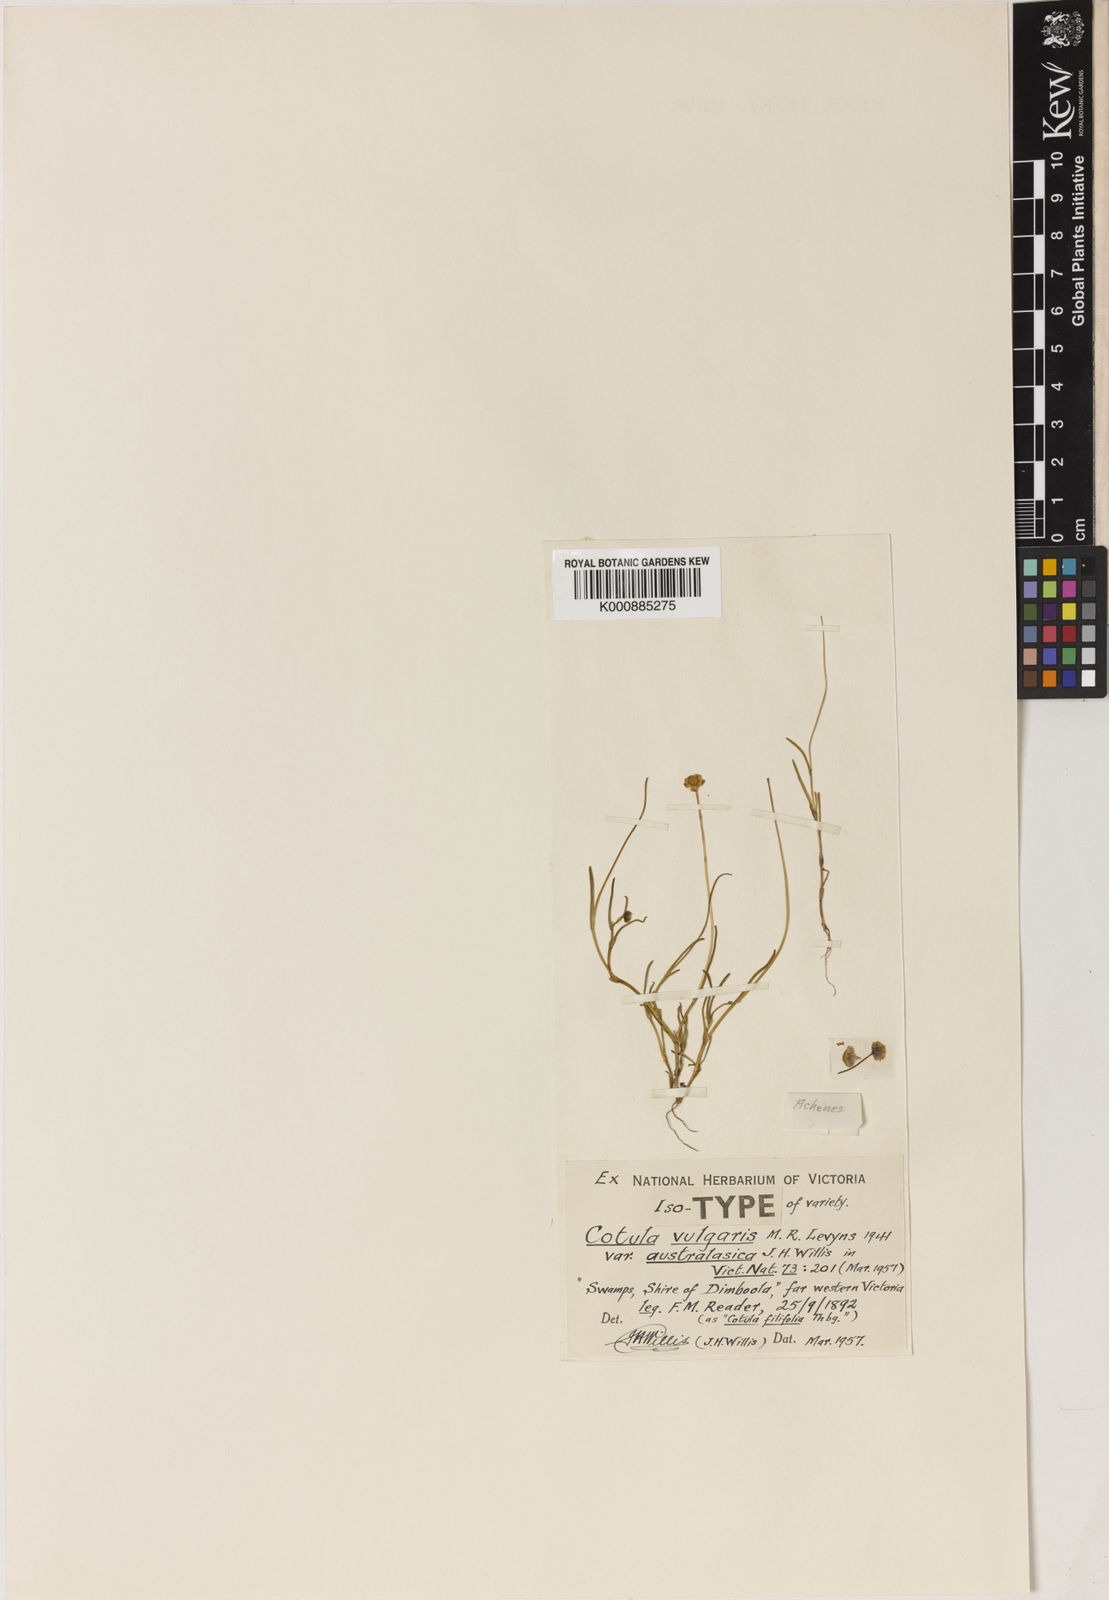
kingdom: Plantae
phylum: Tracheophyta
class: Magnoliopsida
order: Asterales
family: Asteraceae
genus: Cotula
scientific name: Cotula
